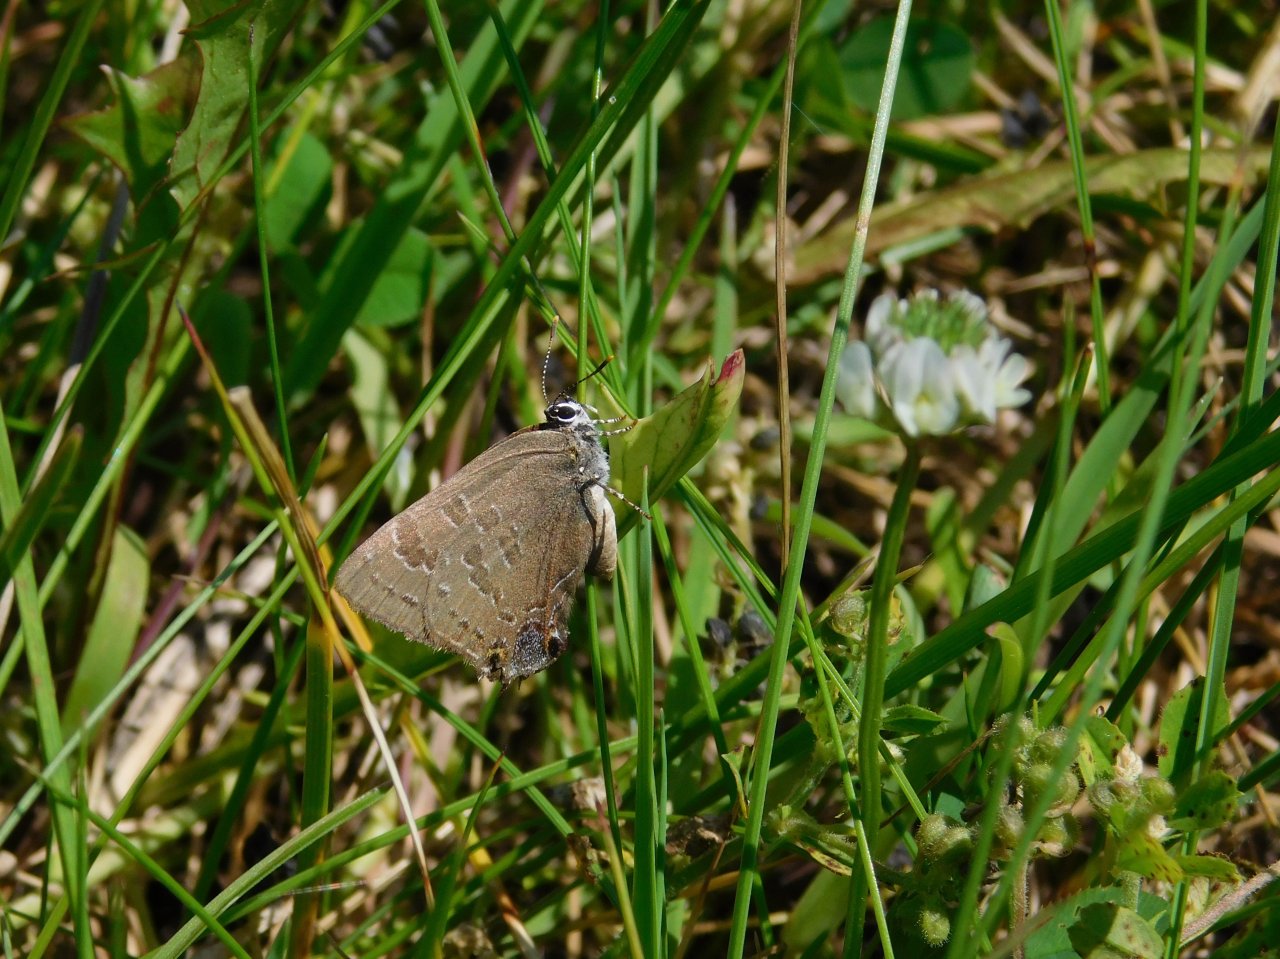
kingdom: Animalia
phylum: Arthropoda
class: Insecta
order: Lepidoptera
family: Lycaenidae
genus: Strymon
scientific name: Strymon caryaevorus
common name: Hickory Hairstreak
